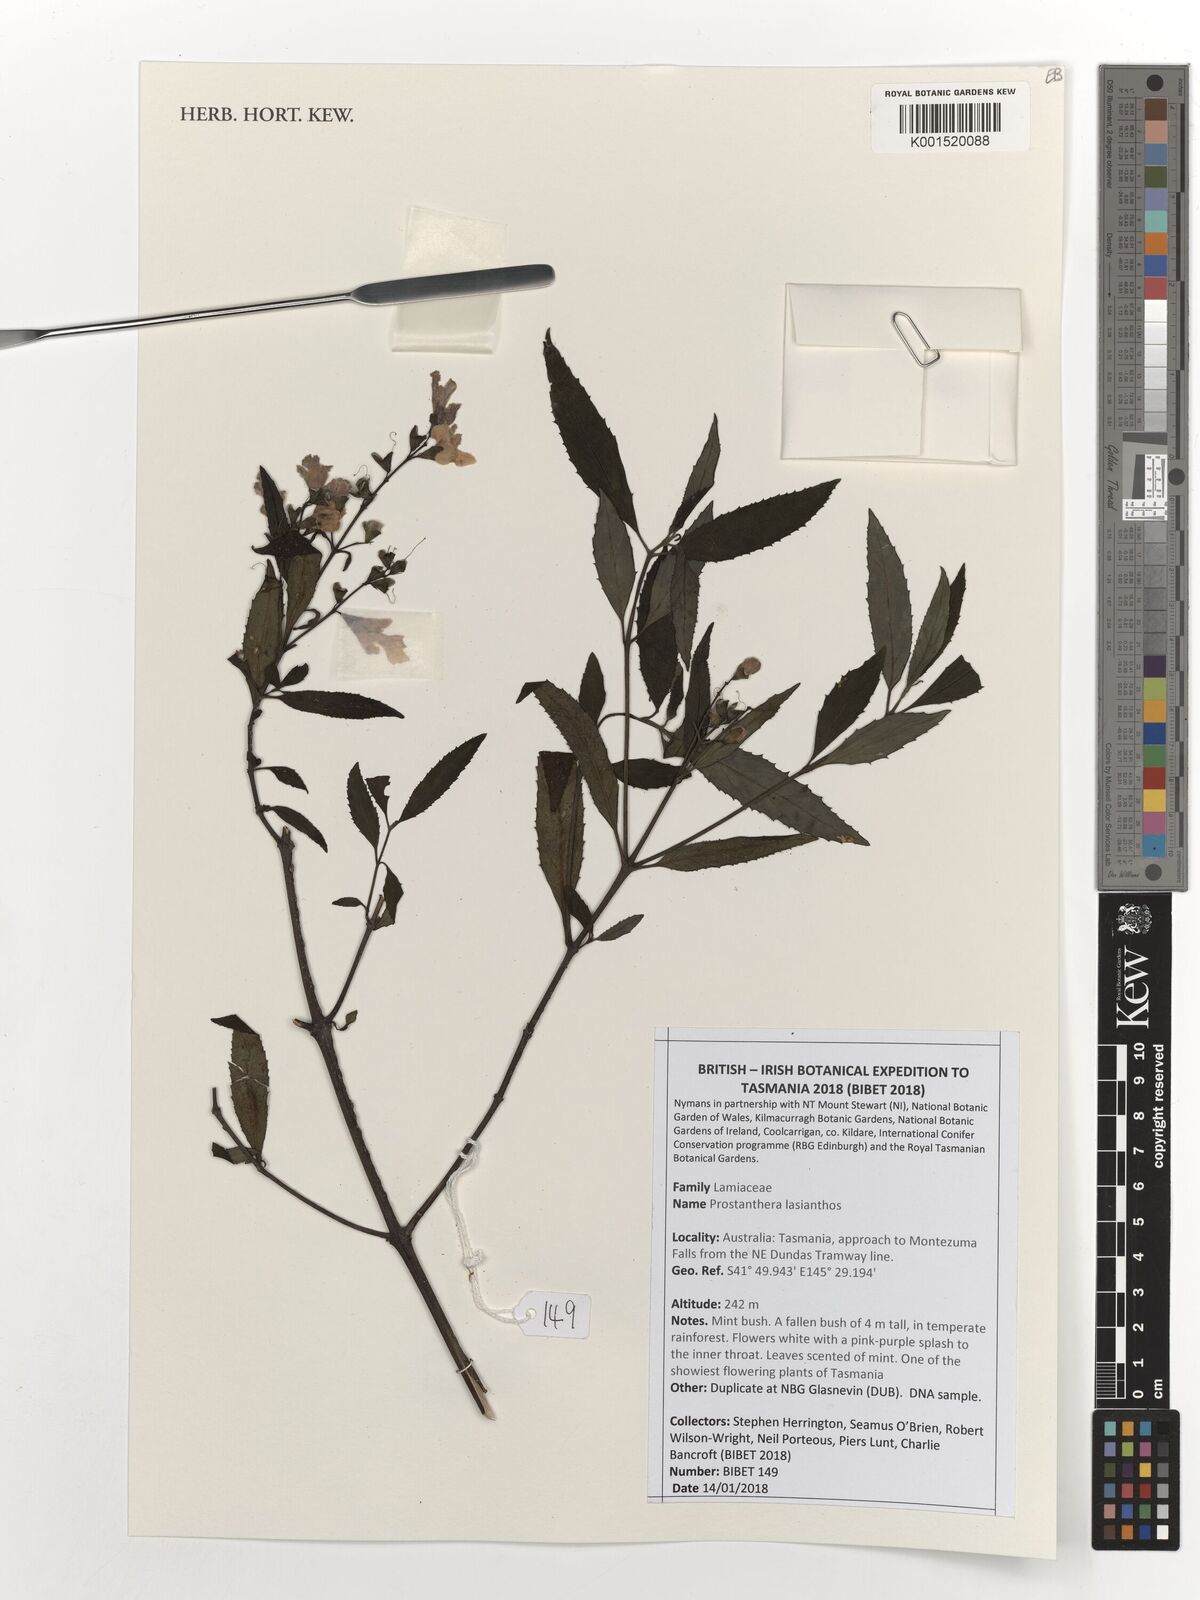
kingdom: Plantae
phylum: Tracheophyta
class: Magnoliopsida
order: Lamiales
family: Lamiaceae
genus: Prostanthera
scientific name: Prostanthera lasianthos
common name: Mountain-lilac
